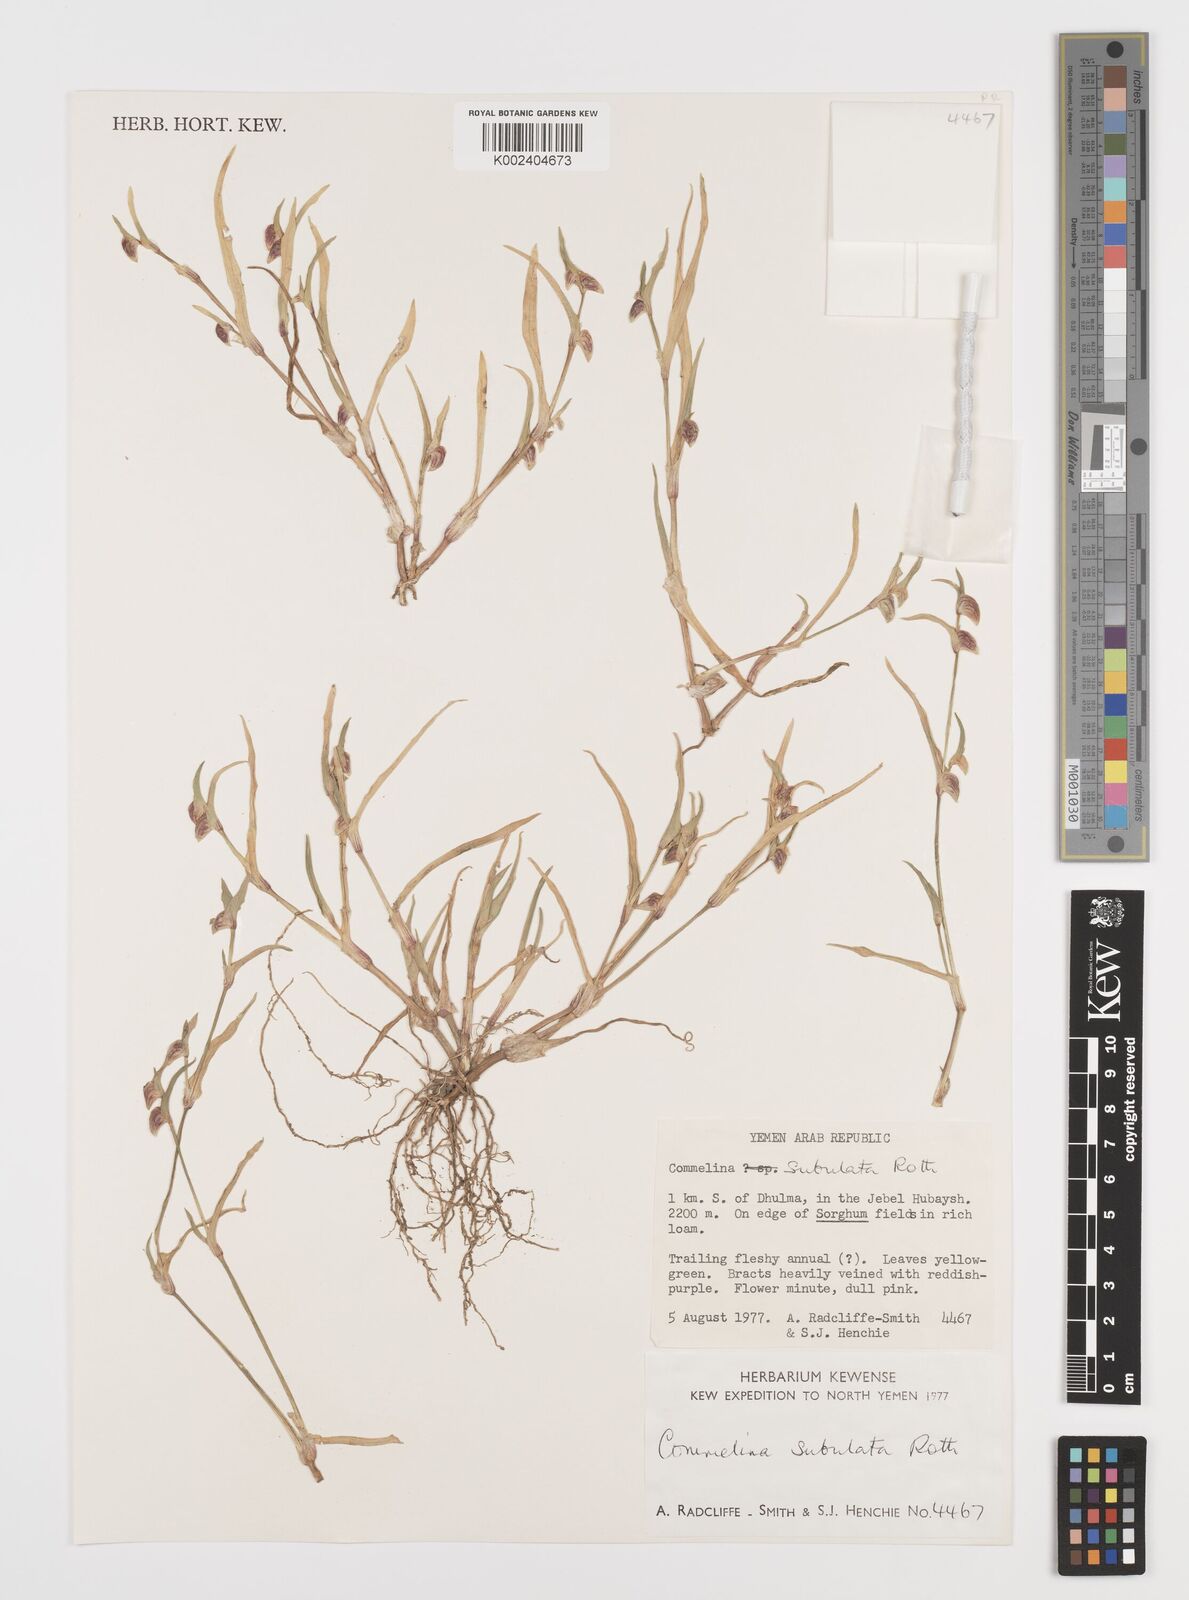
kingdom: Plantae
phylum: Tracheophyta
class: Liliopsida
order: Commelinales
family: Commelinaceae
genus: Commelina
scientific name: Commelina subulata
